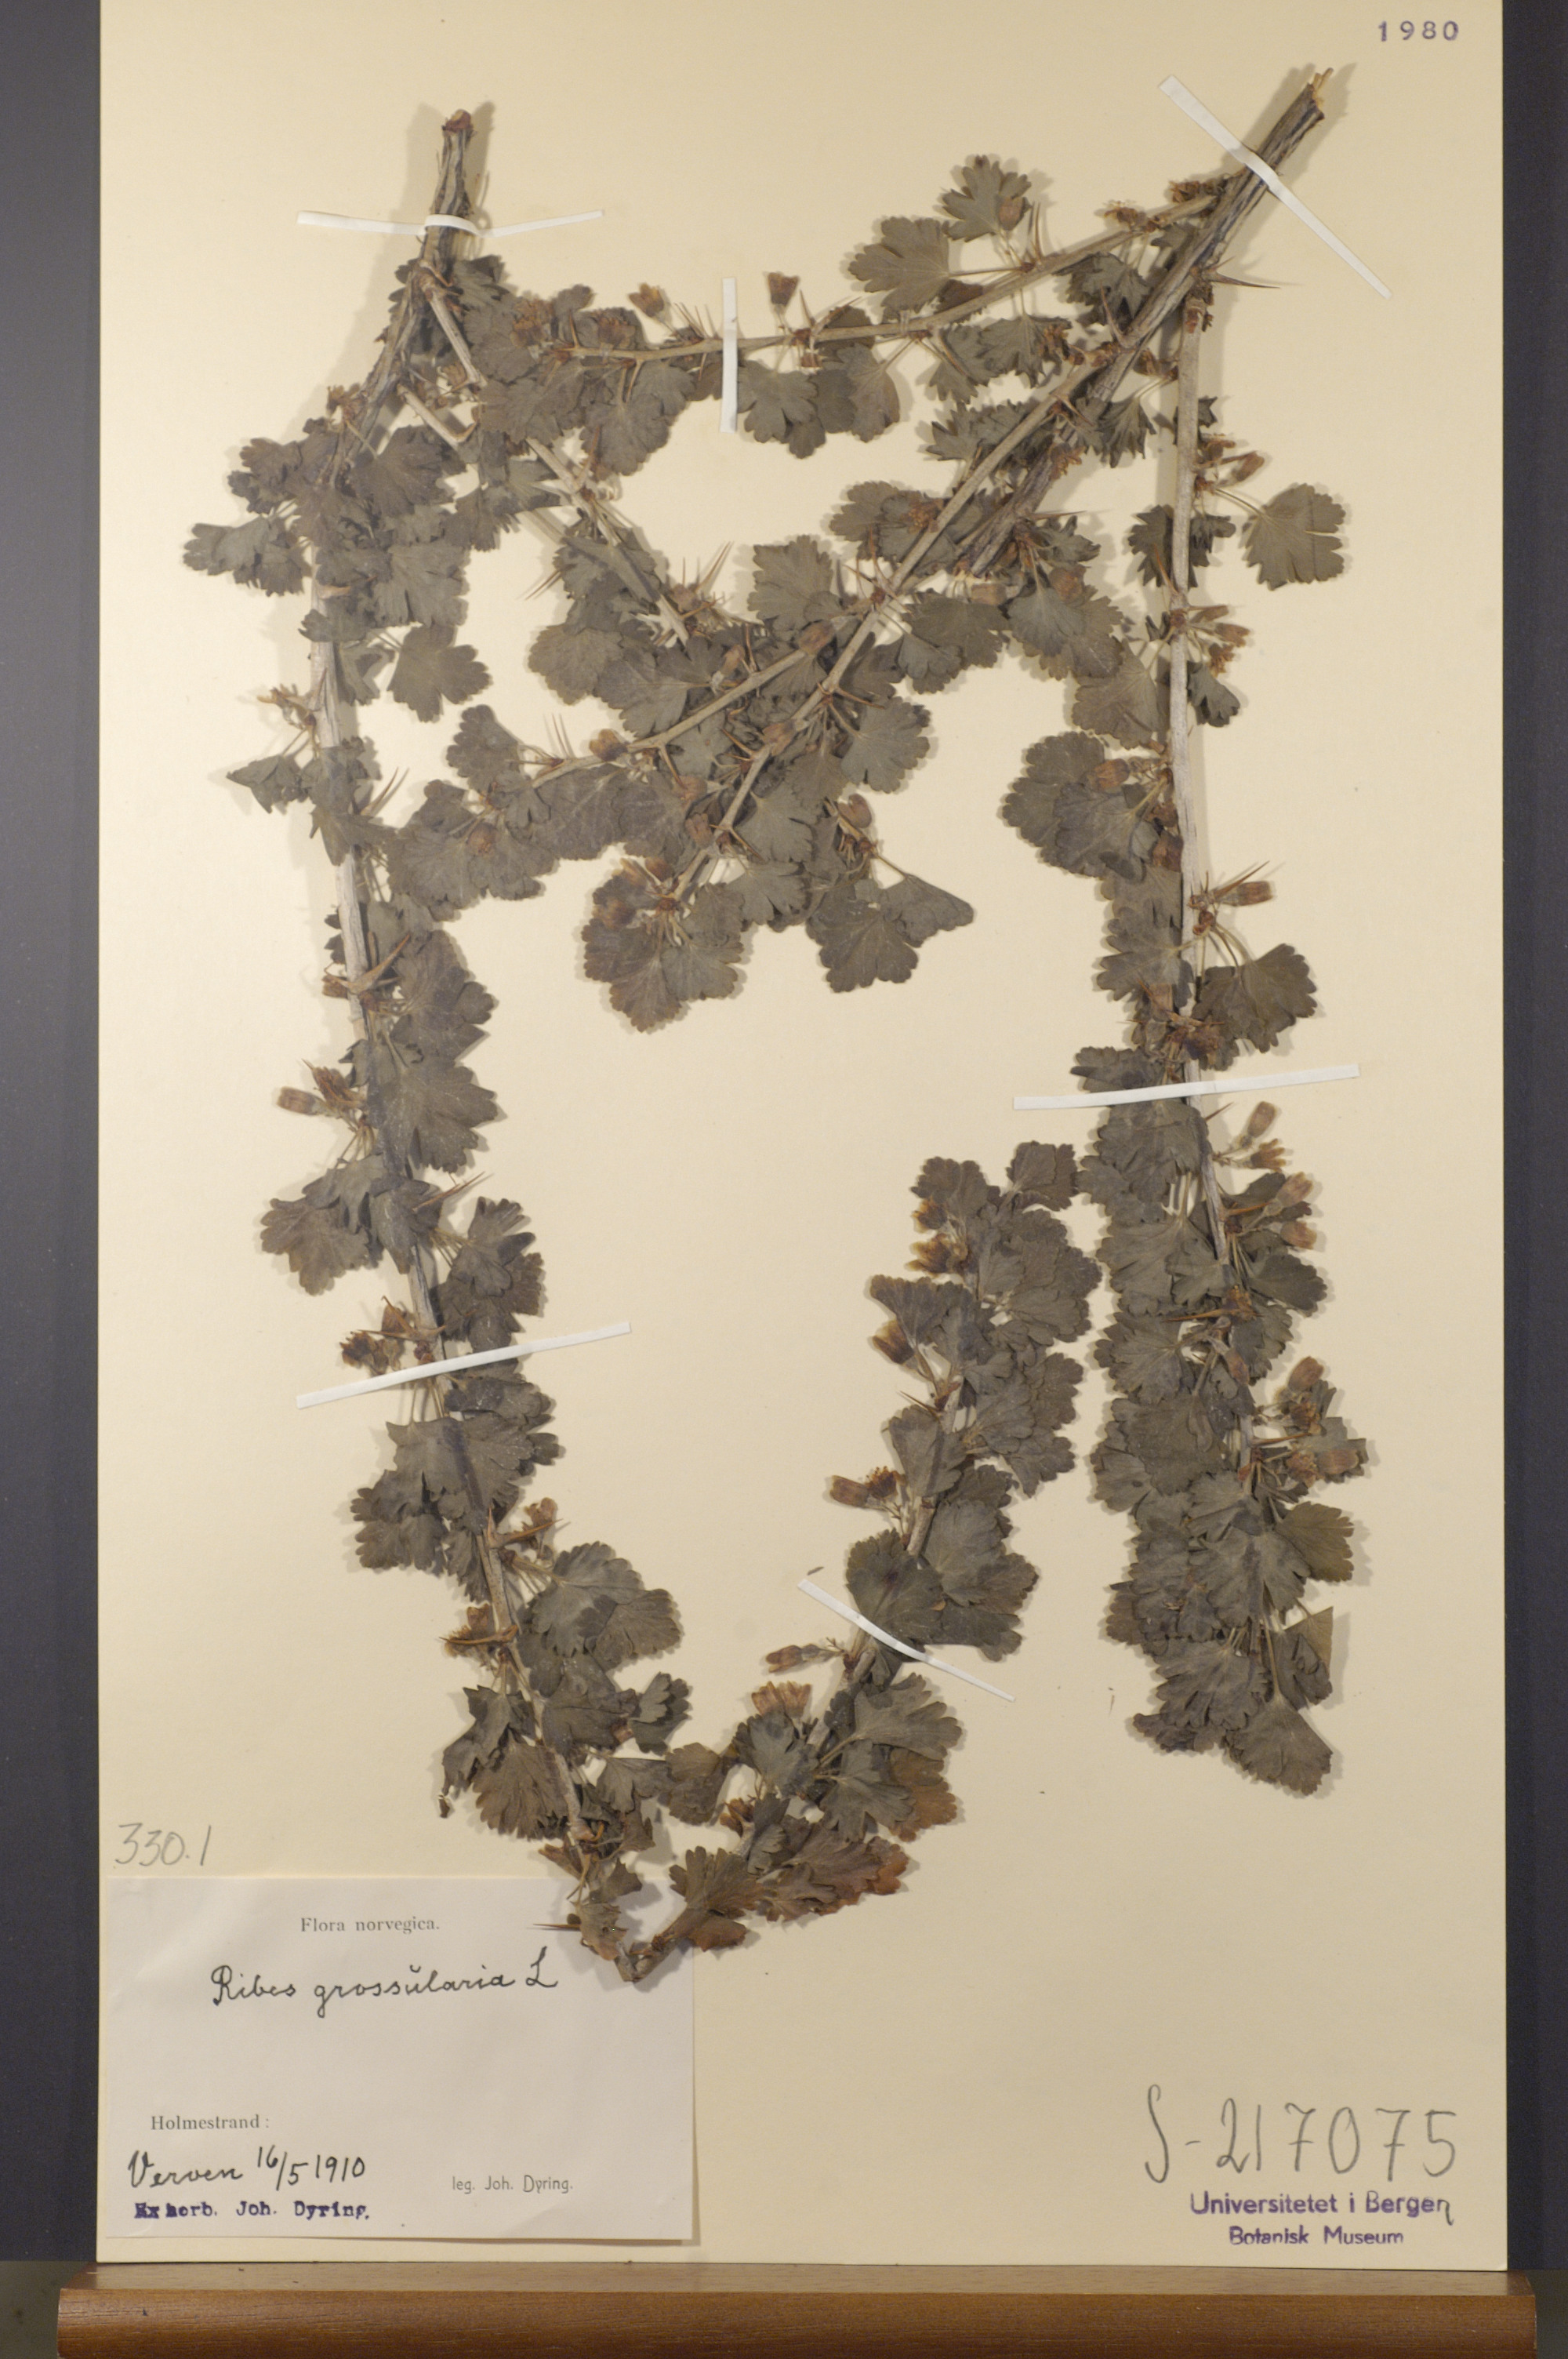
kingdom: Plantae
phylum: Tracheophyta
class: Magnoliopsida
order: Saxifragales
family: Grossulariaceae
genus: Ribes
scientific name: Ribes uva-crispa
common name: Gooseberry
